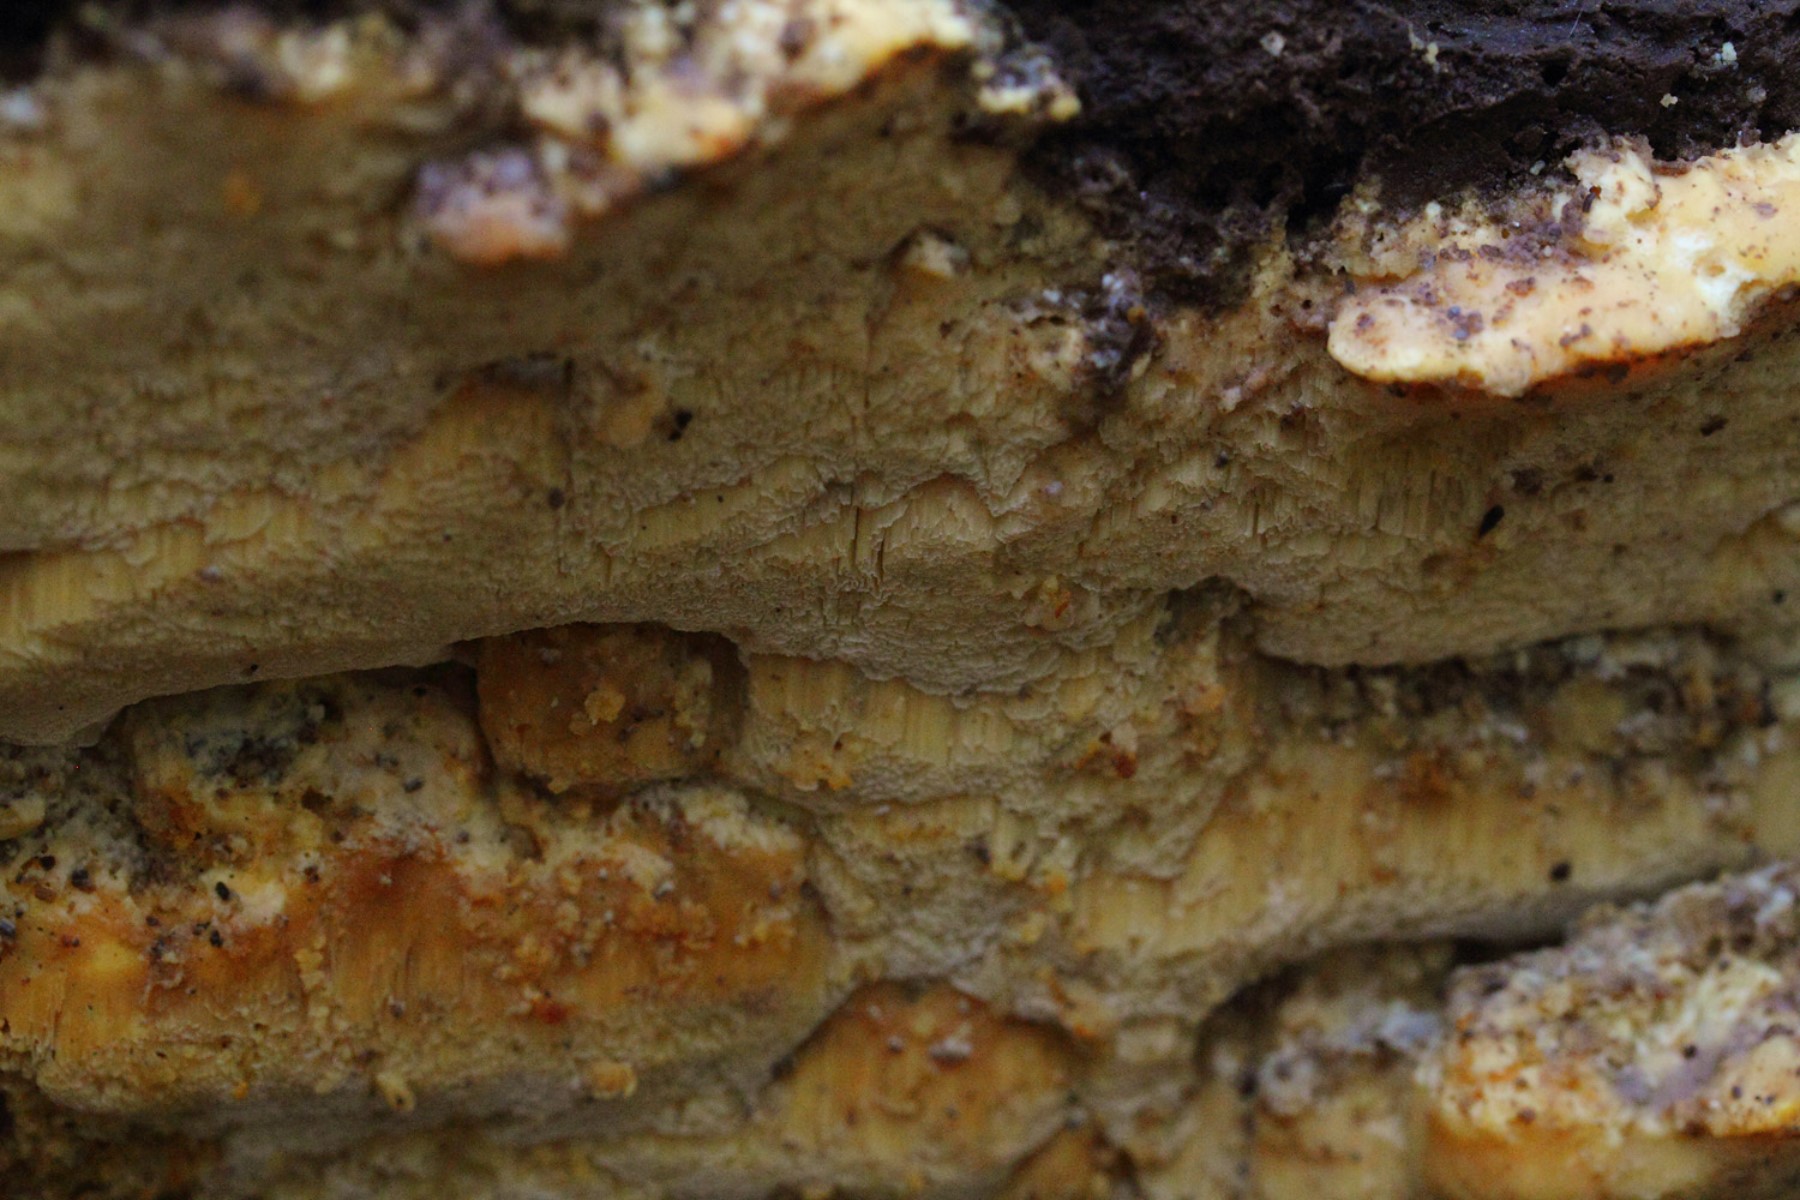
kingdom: Fungi
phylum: Basidiomycota
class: Agaricomycetes
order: Polyporales
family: Steccherinaceae
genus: Antrodiella
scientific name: Antrodiella mentschulensis
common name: abrikosporesvamp
